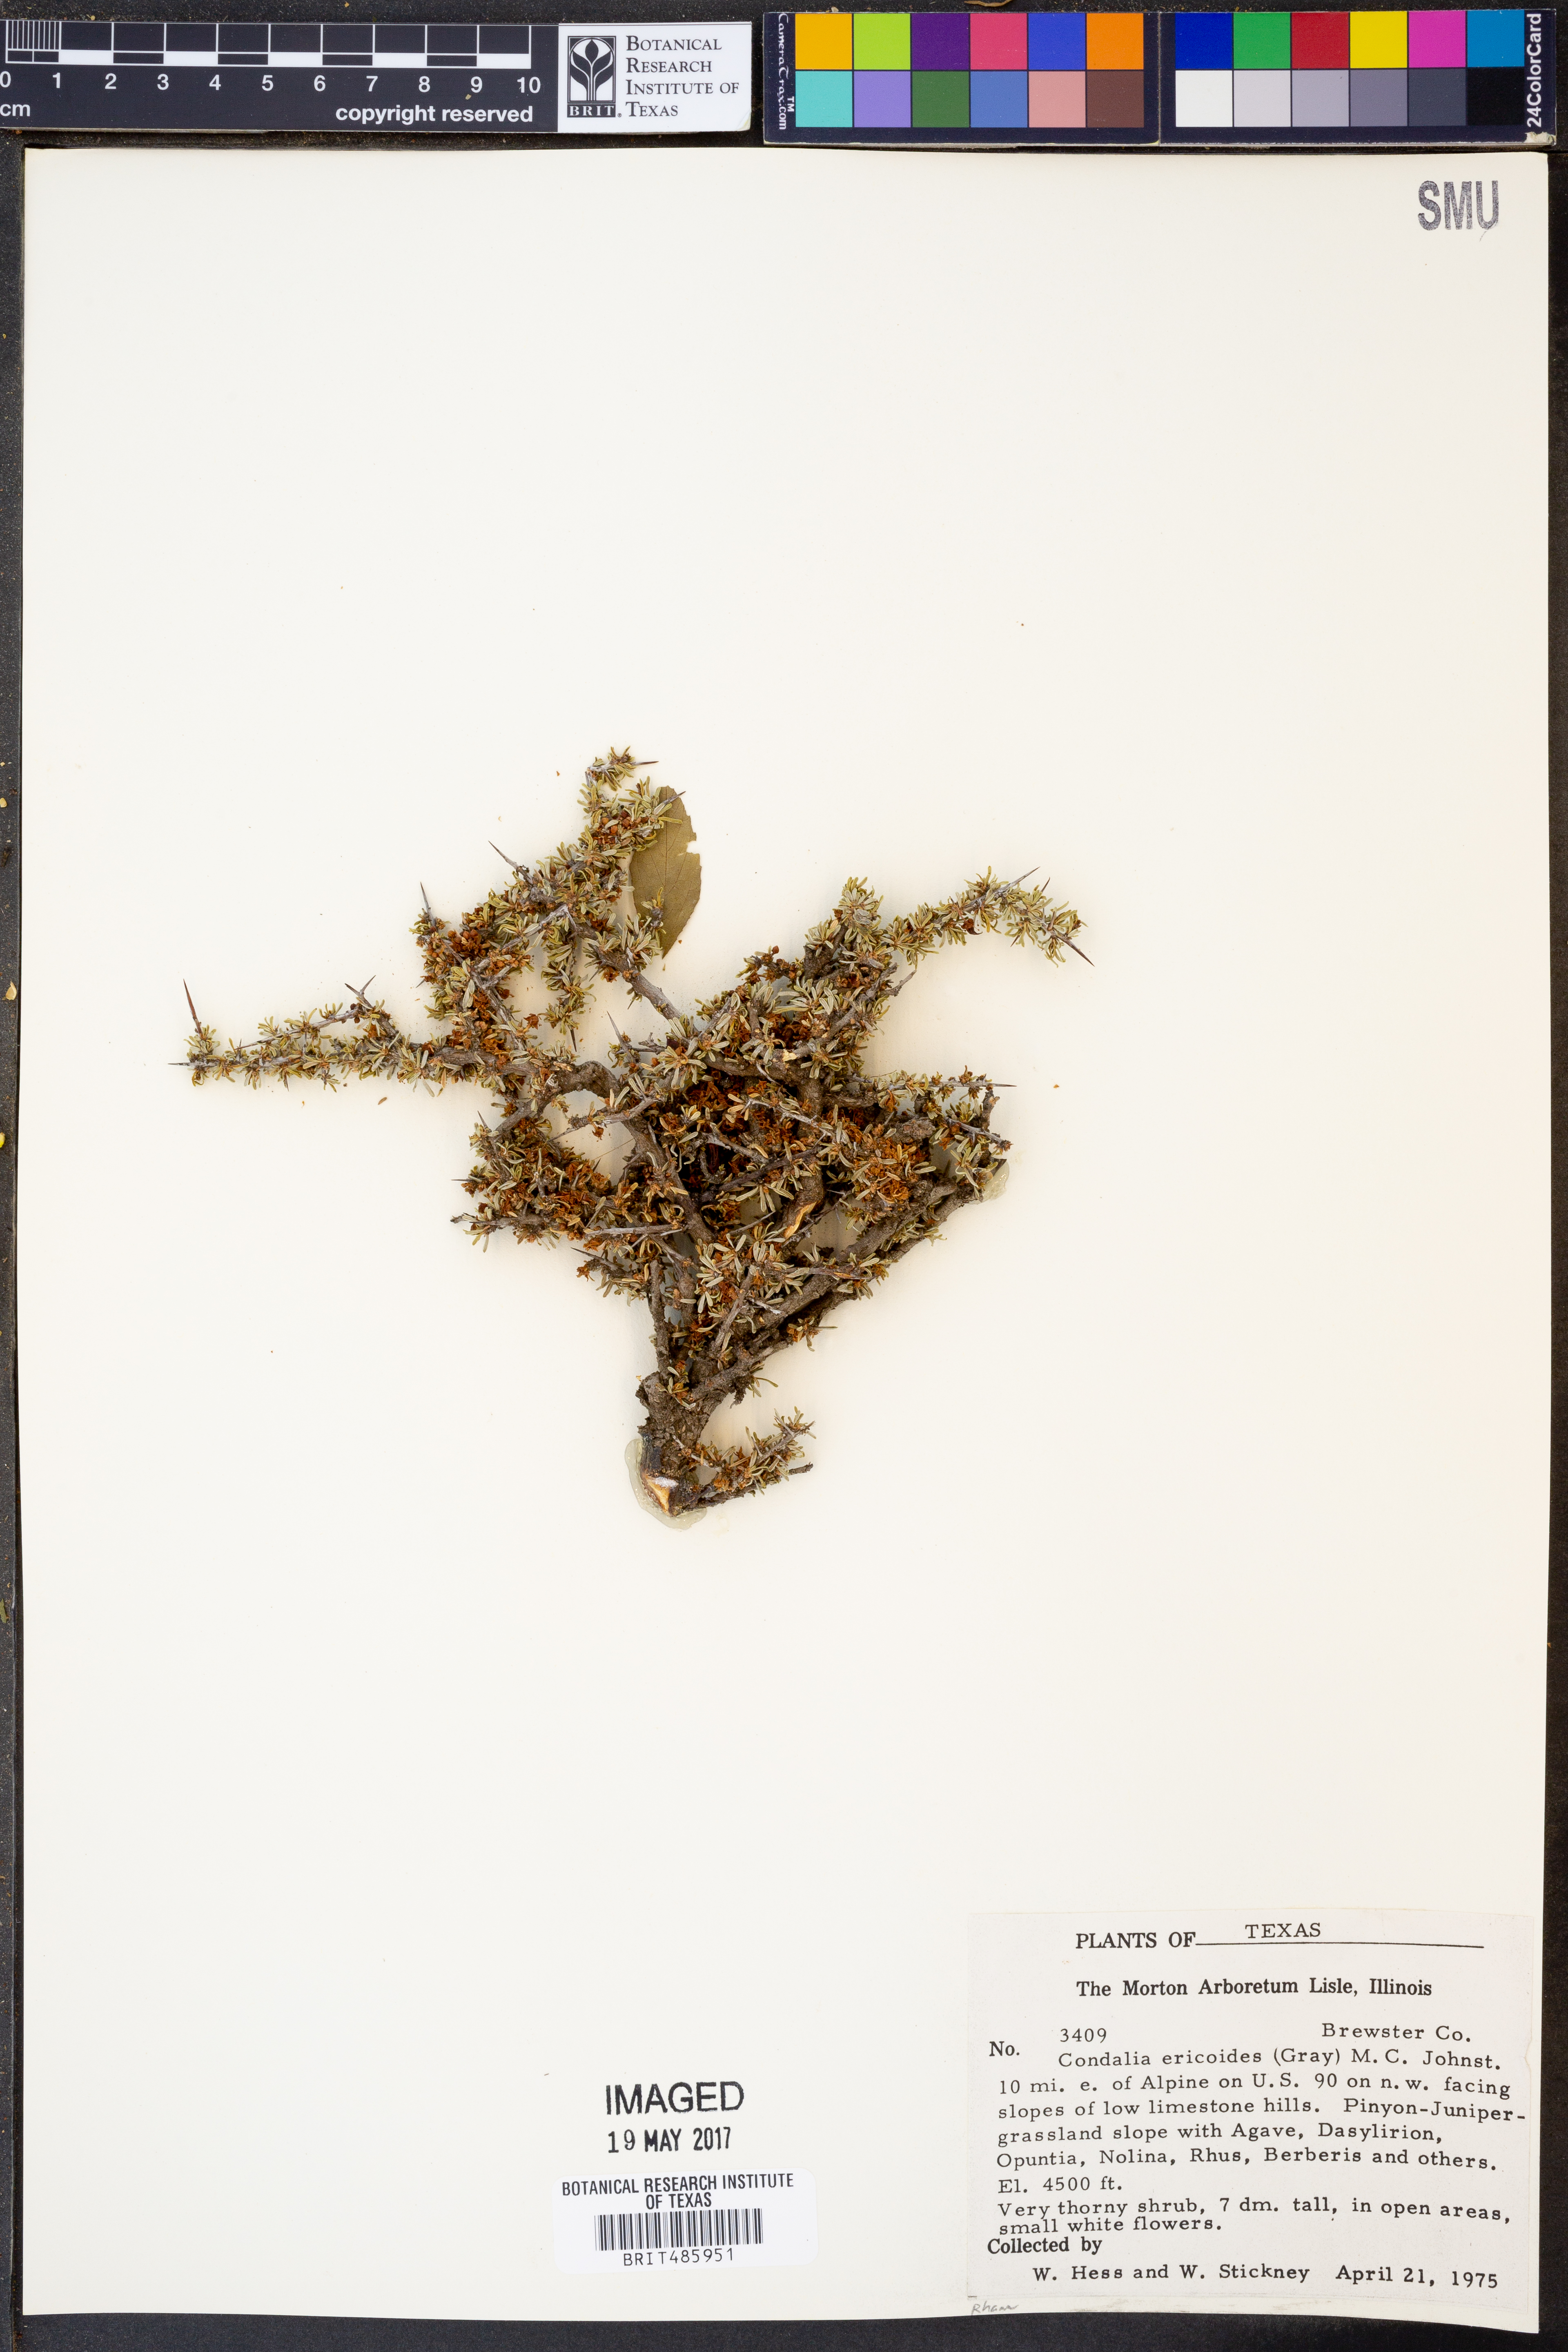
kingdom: Plantae
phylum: Tracheophyta
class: Magnoliopsida
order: Rosales
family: Rhamnaceae
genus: Condalia
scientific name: Condalia ericoides
